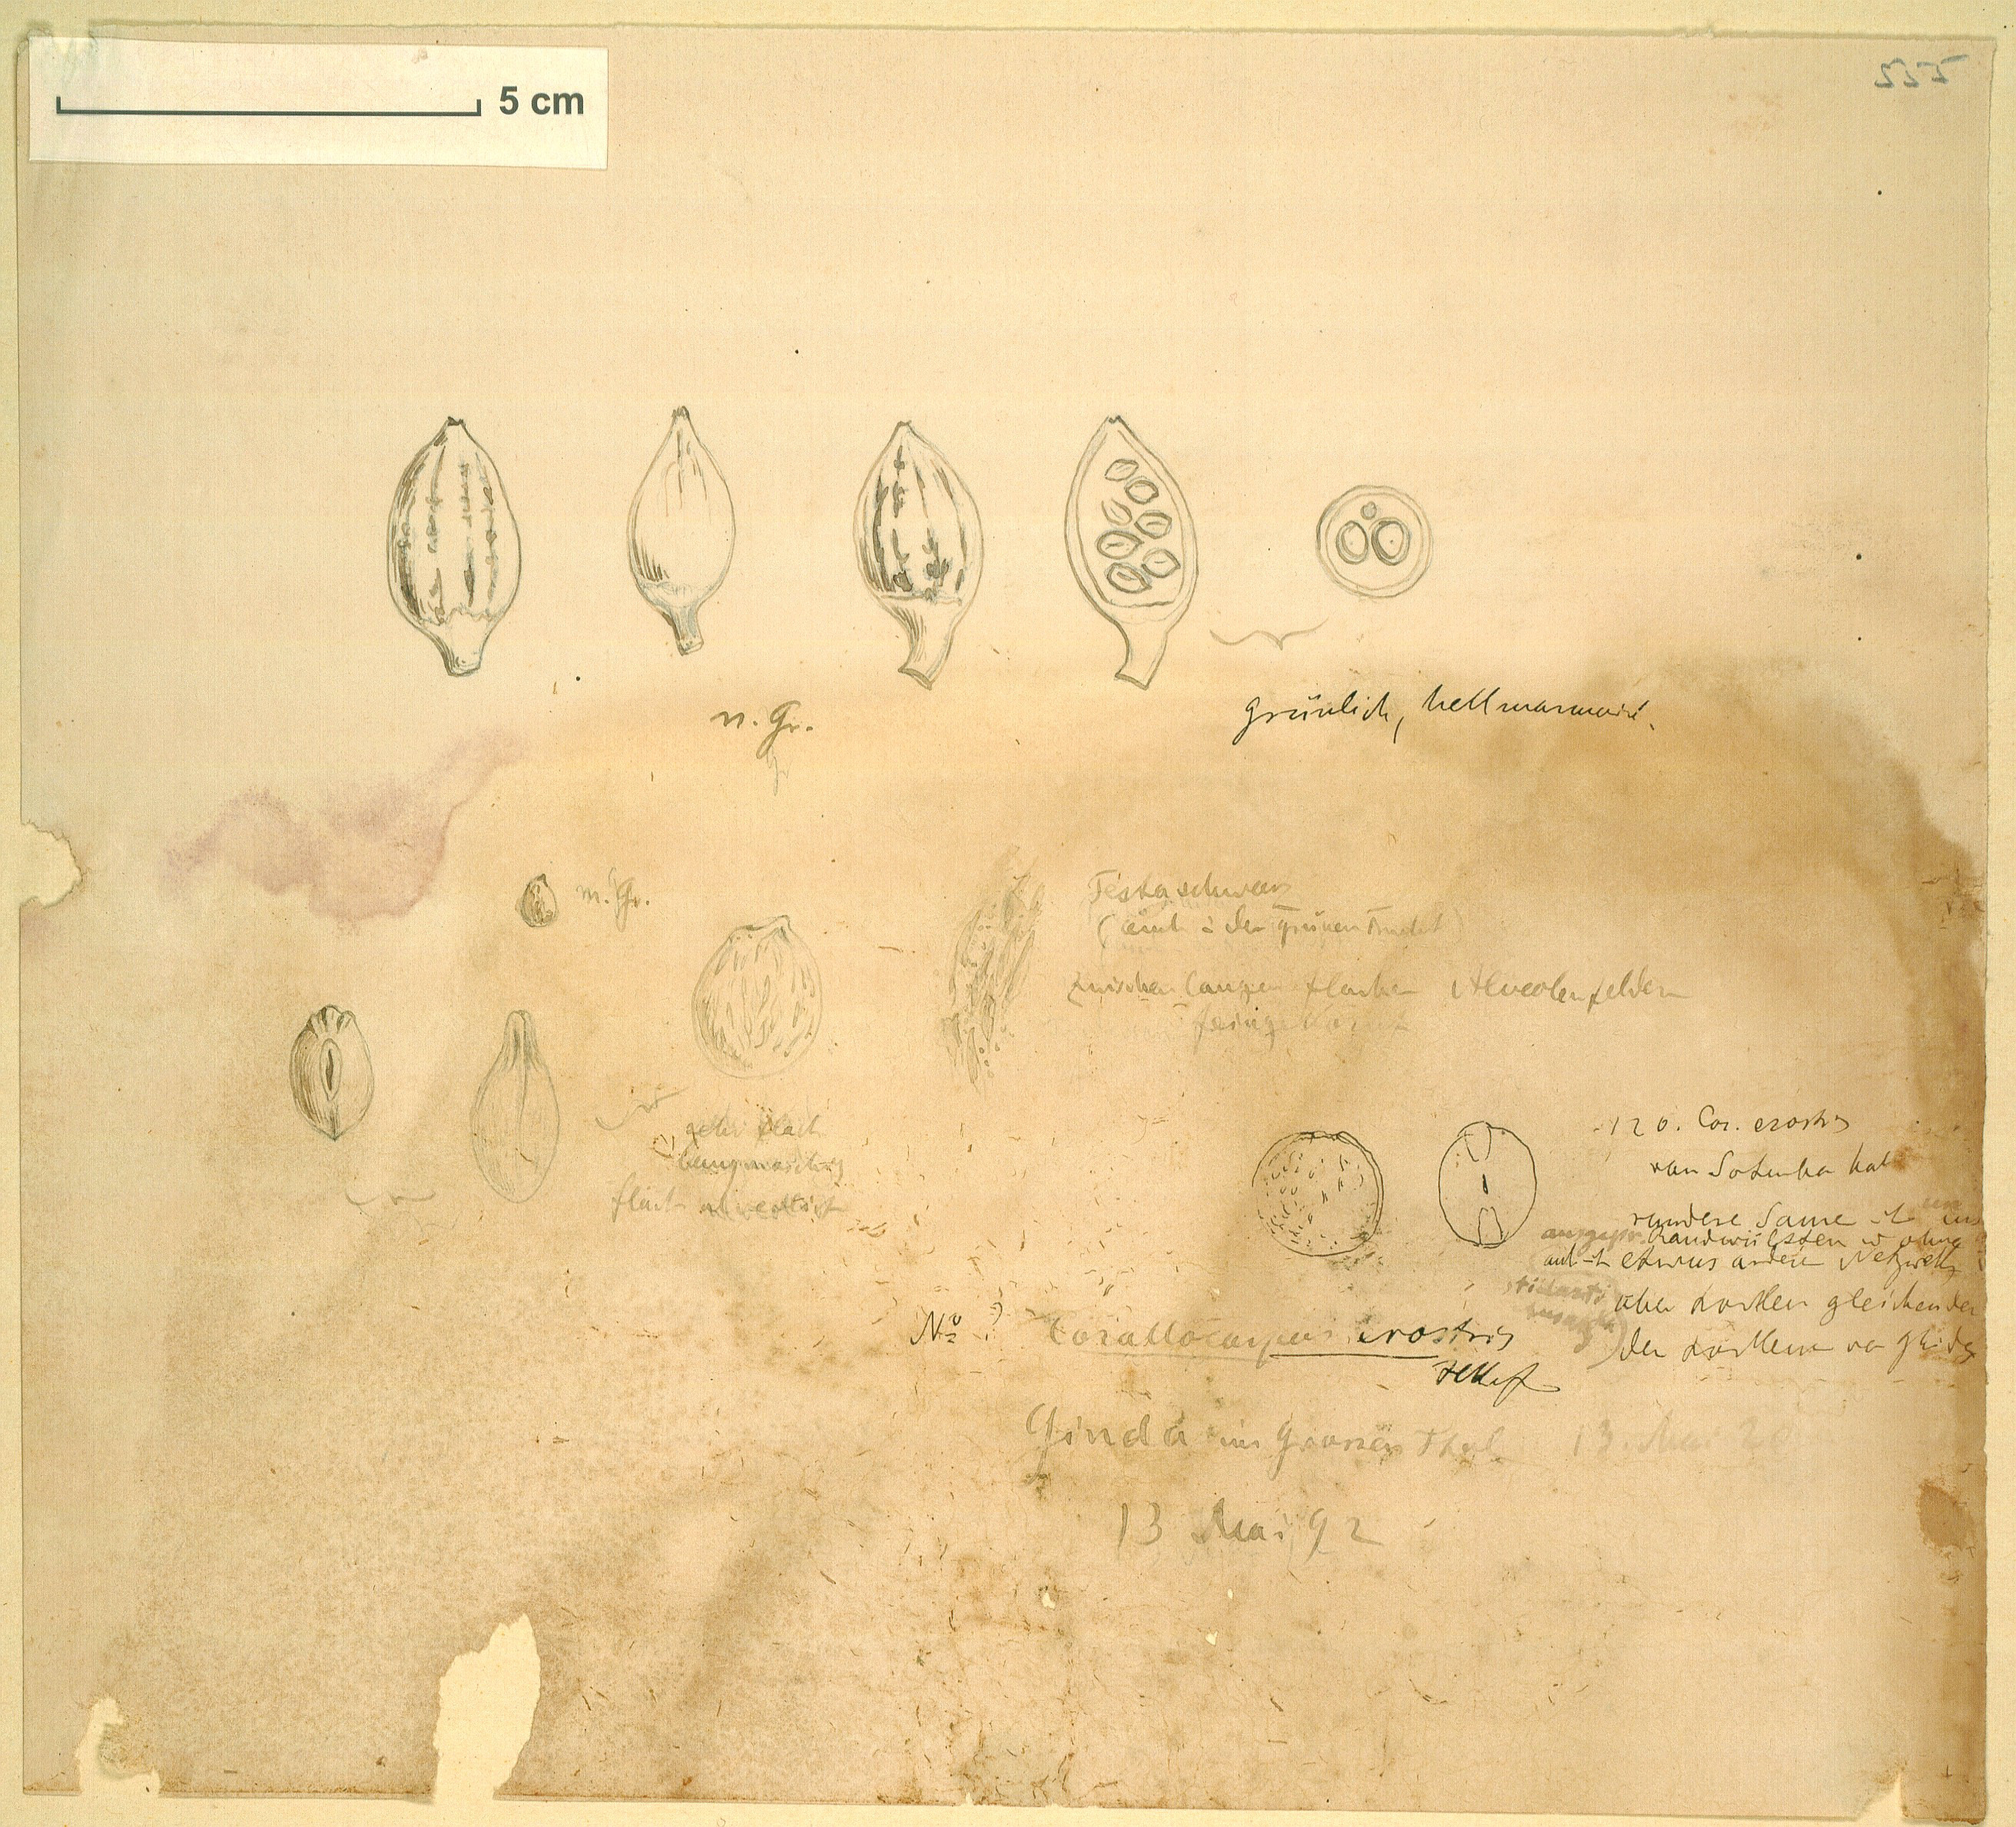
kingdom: Plantae
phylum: Tracheophyta
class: Magnoliopsida
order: Cucurbitales
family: Cucurbitaceae
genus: Corallocarpus
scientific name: Corallocarpus schimperi
